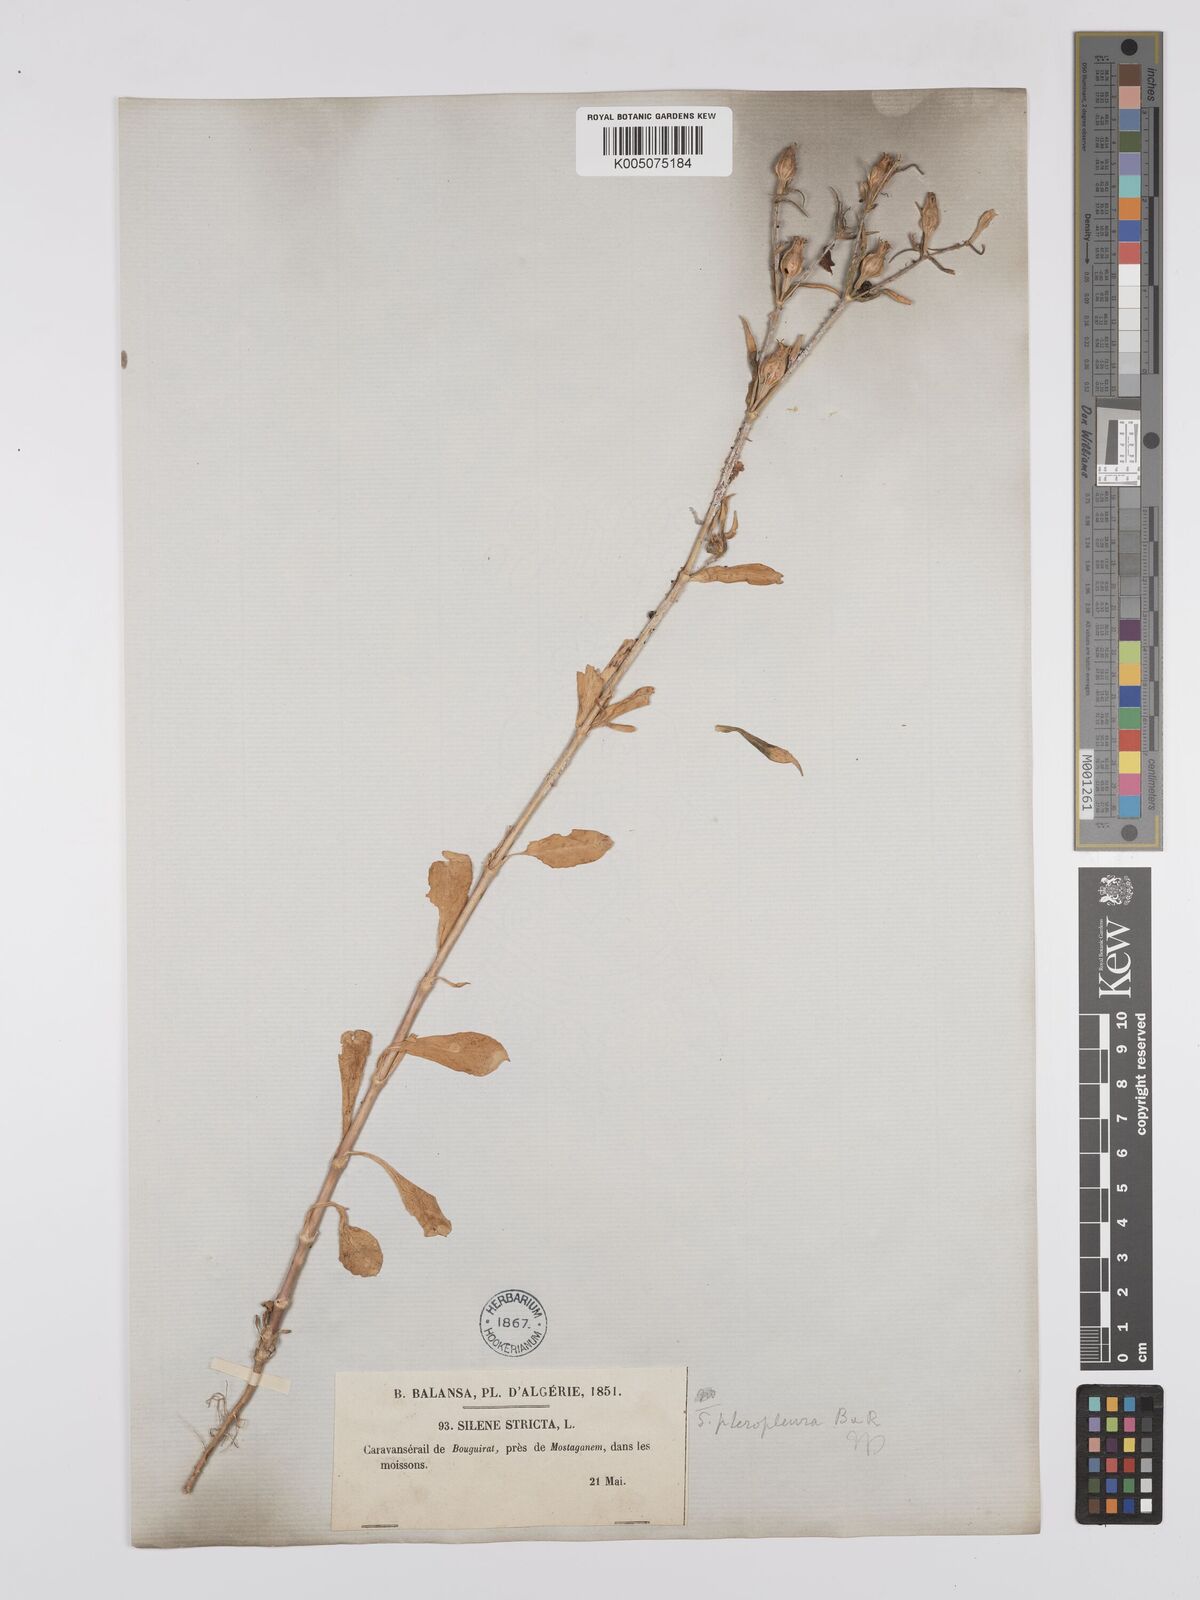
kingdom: Plantae
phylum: Tracheophyta
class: Magnoliopsida
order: Caryophyllales
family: Caryophyllaceae
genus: Silene
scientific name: Silene stricta
